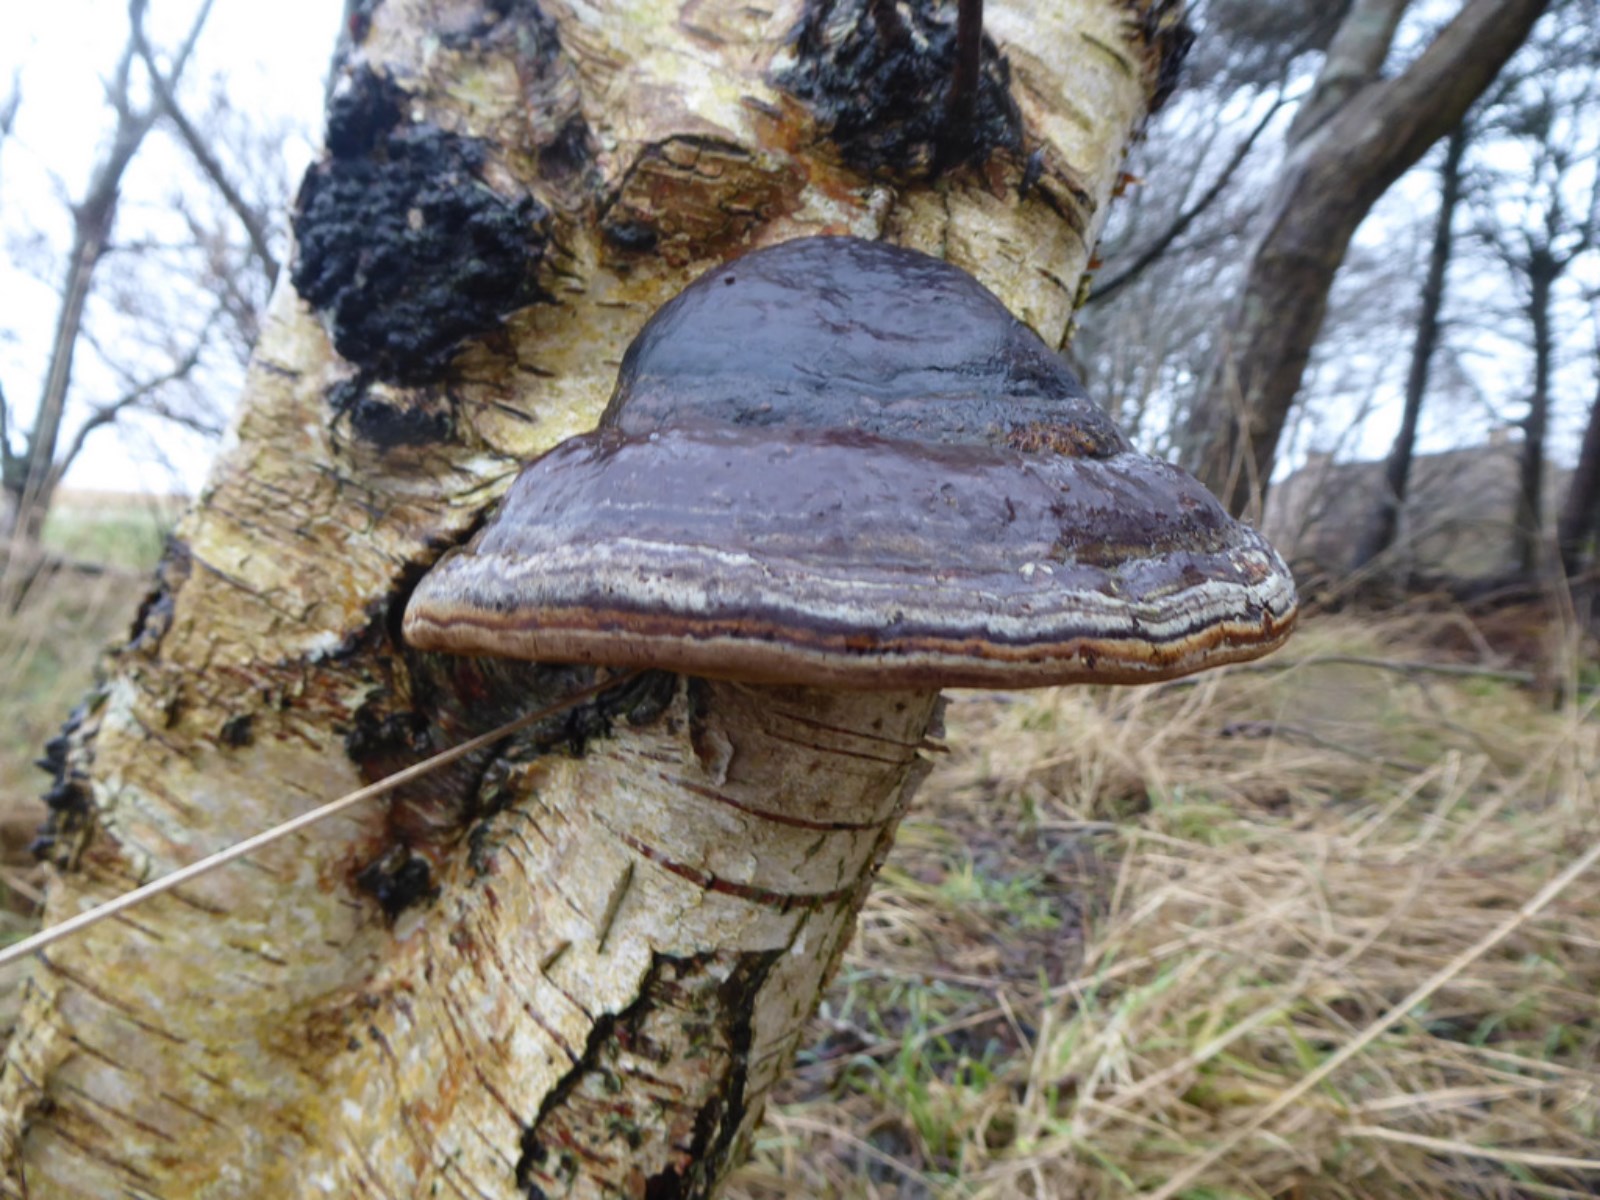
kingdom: Fungi
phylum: Basidiomycota
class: Agaricomycetes
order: Polyporales
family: Polyporaceae
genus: Fomes
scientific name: Fomes fomentarius
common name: tøndersvamp
